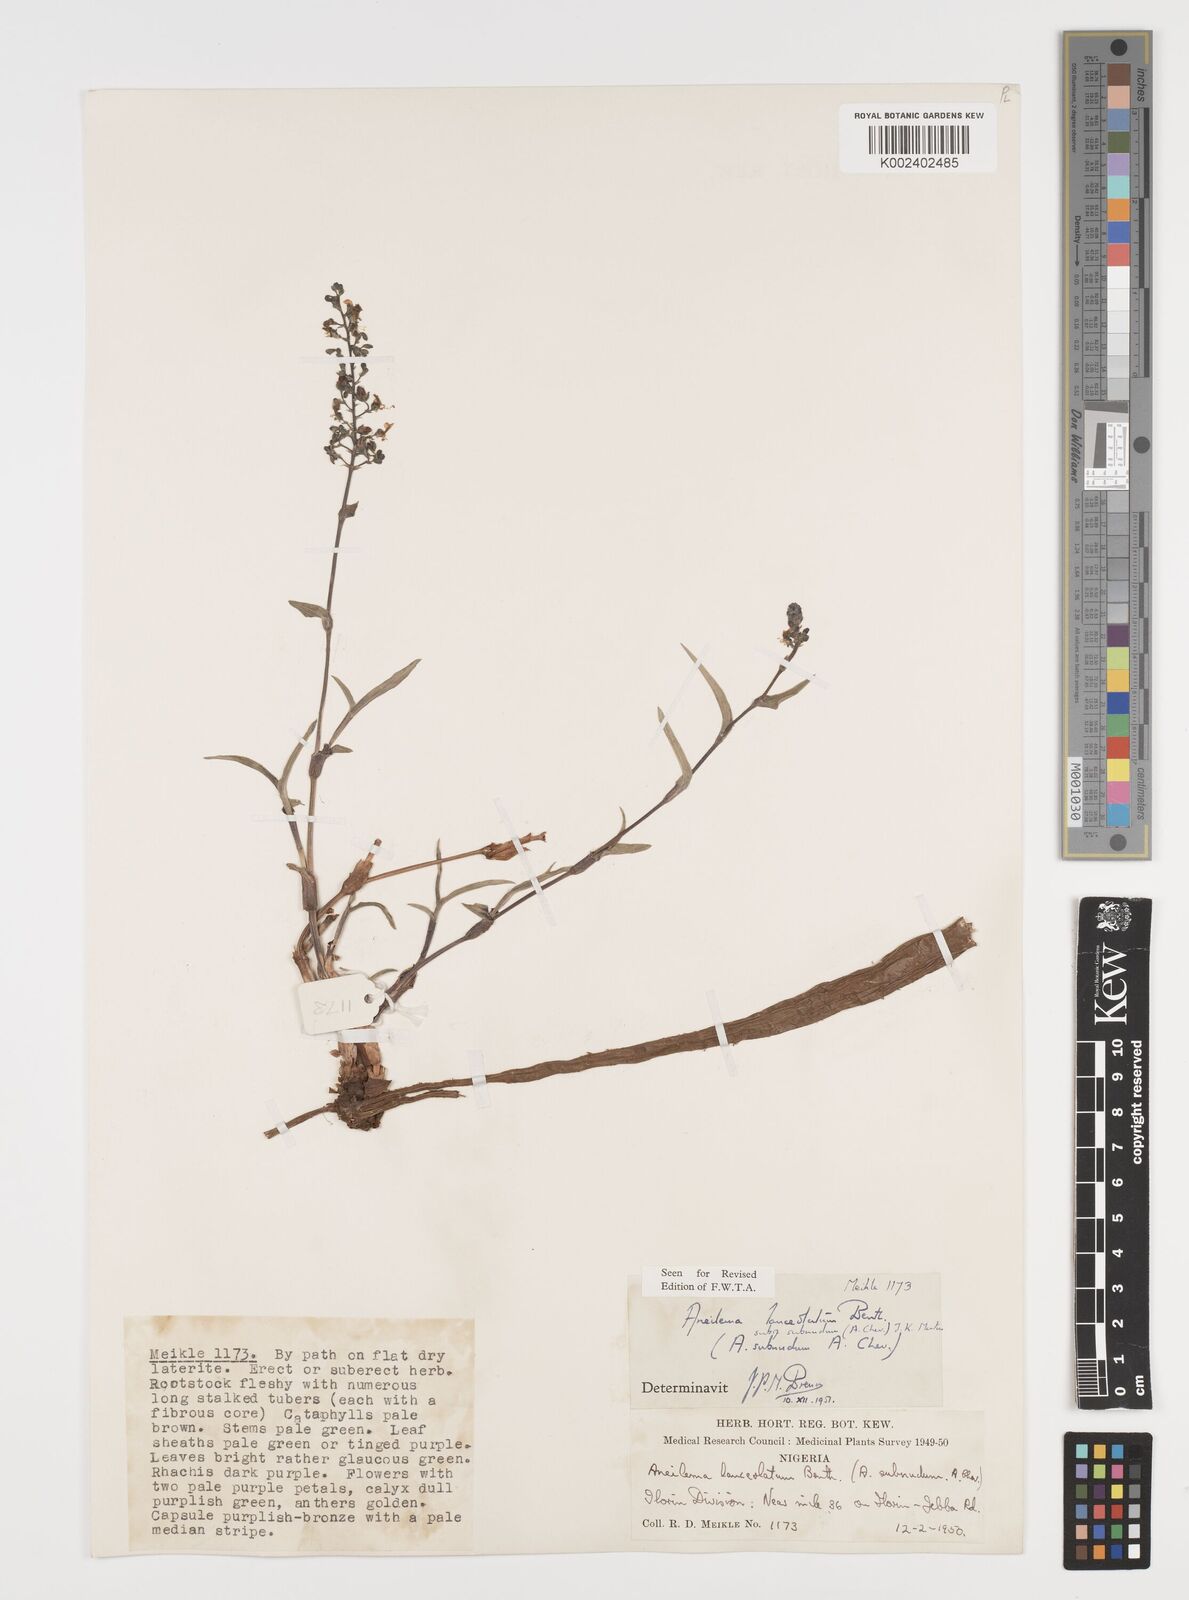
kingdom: Plantae
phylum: Tracheophyta
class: Liliopsida
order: Commelinales
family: Commelinaceae
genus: Aneilema
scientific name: Aneilema lanceolatum
